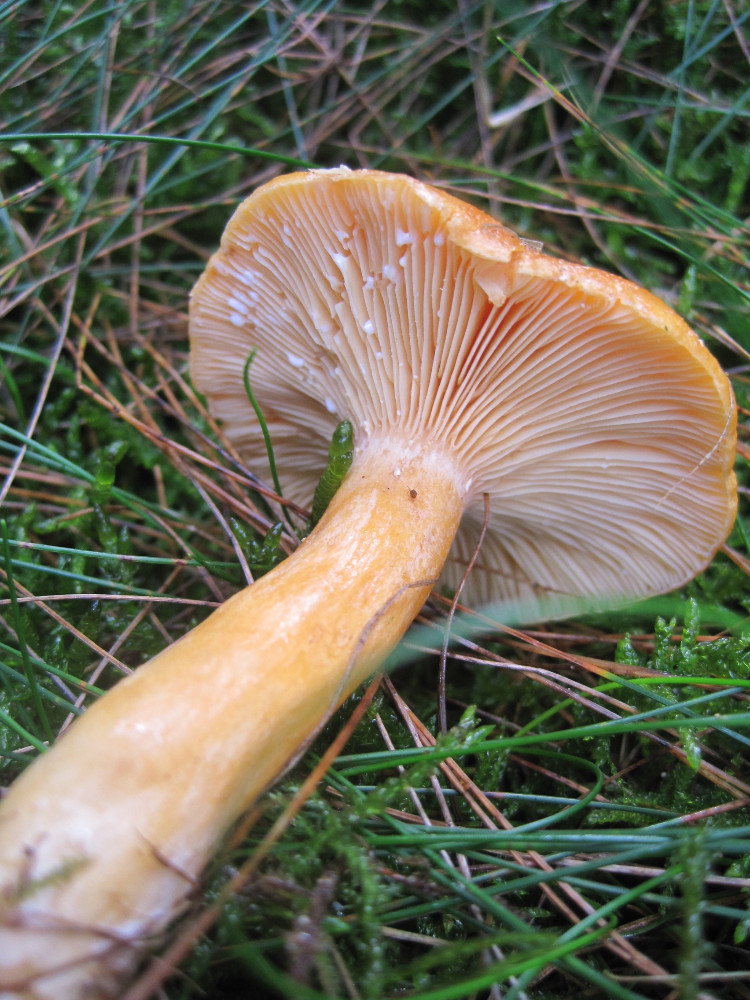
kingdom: Fungi
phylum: Basidiomycota
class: Agaricomycetes
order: Russulales
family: Russulaceae
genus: Lactarius
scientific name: Lactarius porninsis
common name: lærke-mælkehat
